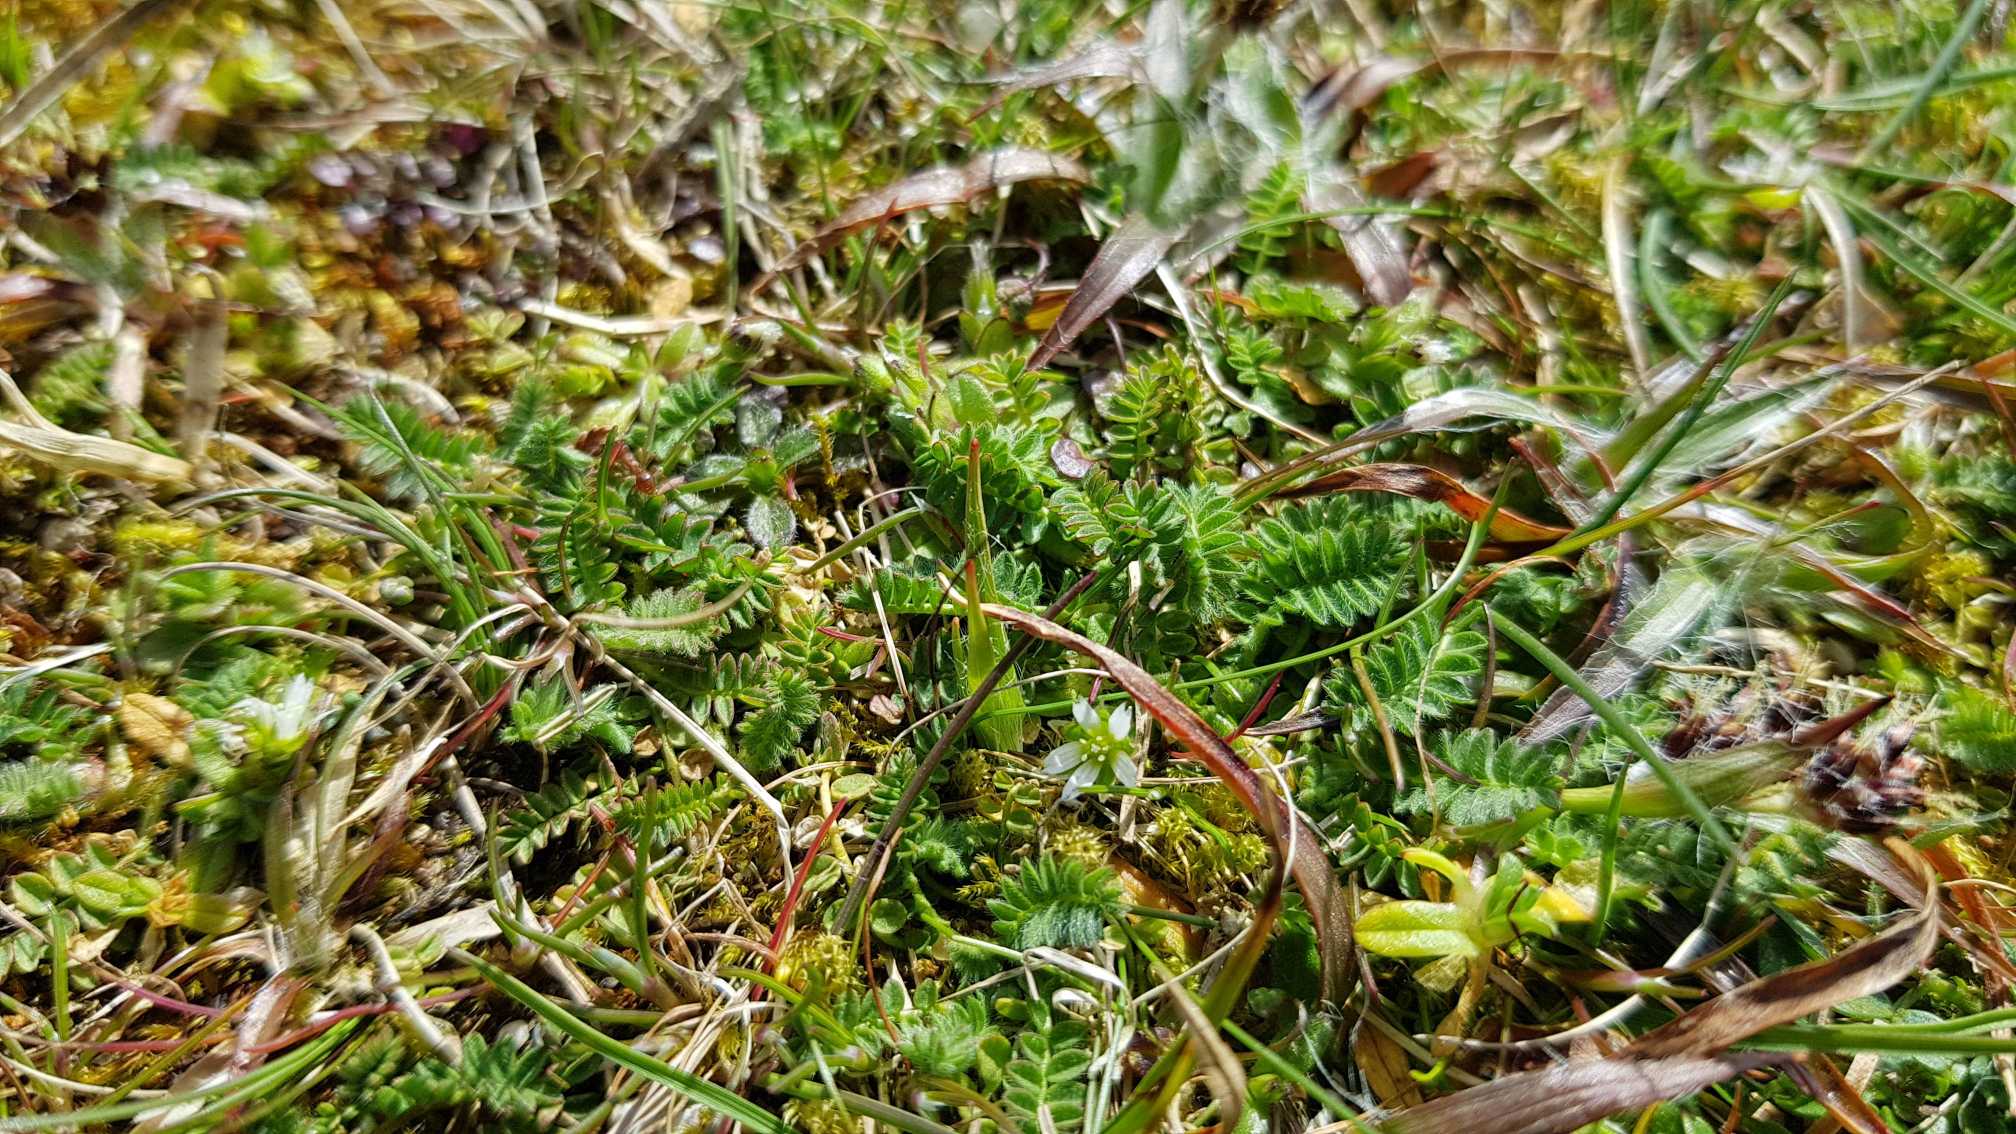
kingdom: Plantae
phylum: Tracheophyta
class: Magnoliopsida
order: Fabales
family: Fabaceae
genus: Ornithopus
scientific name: Ornithopus perpusillus
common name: Liden fugleklo
